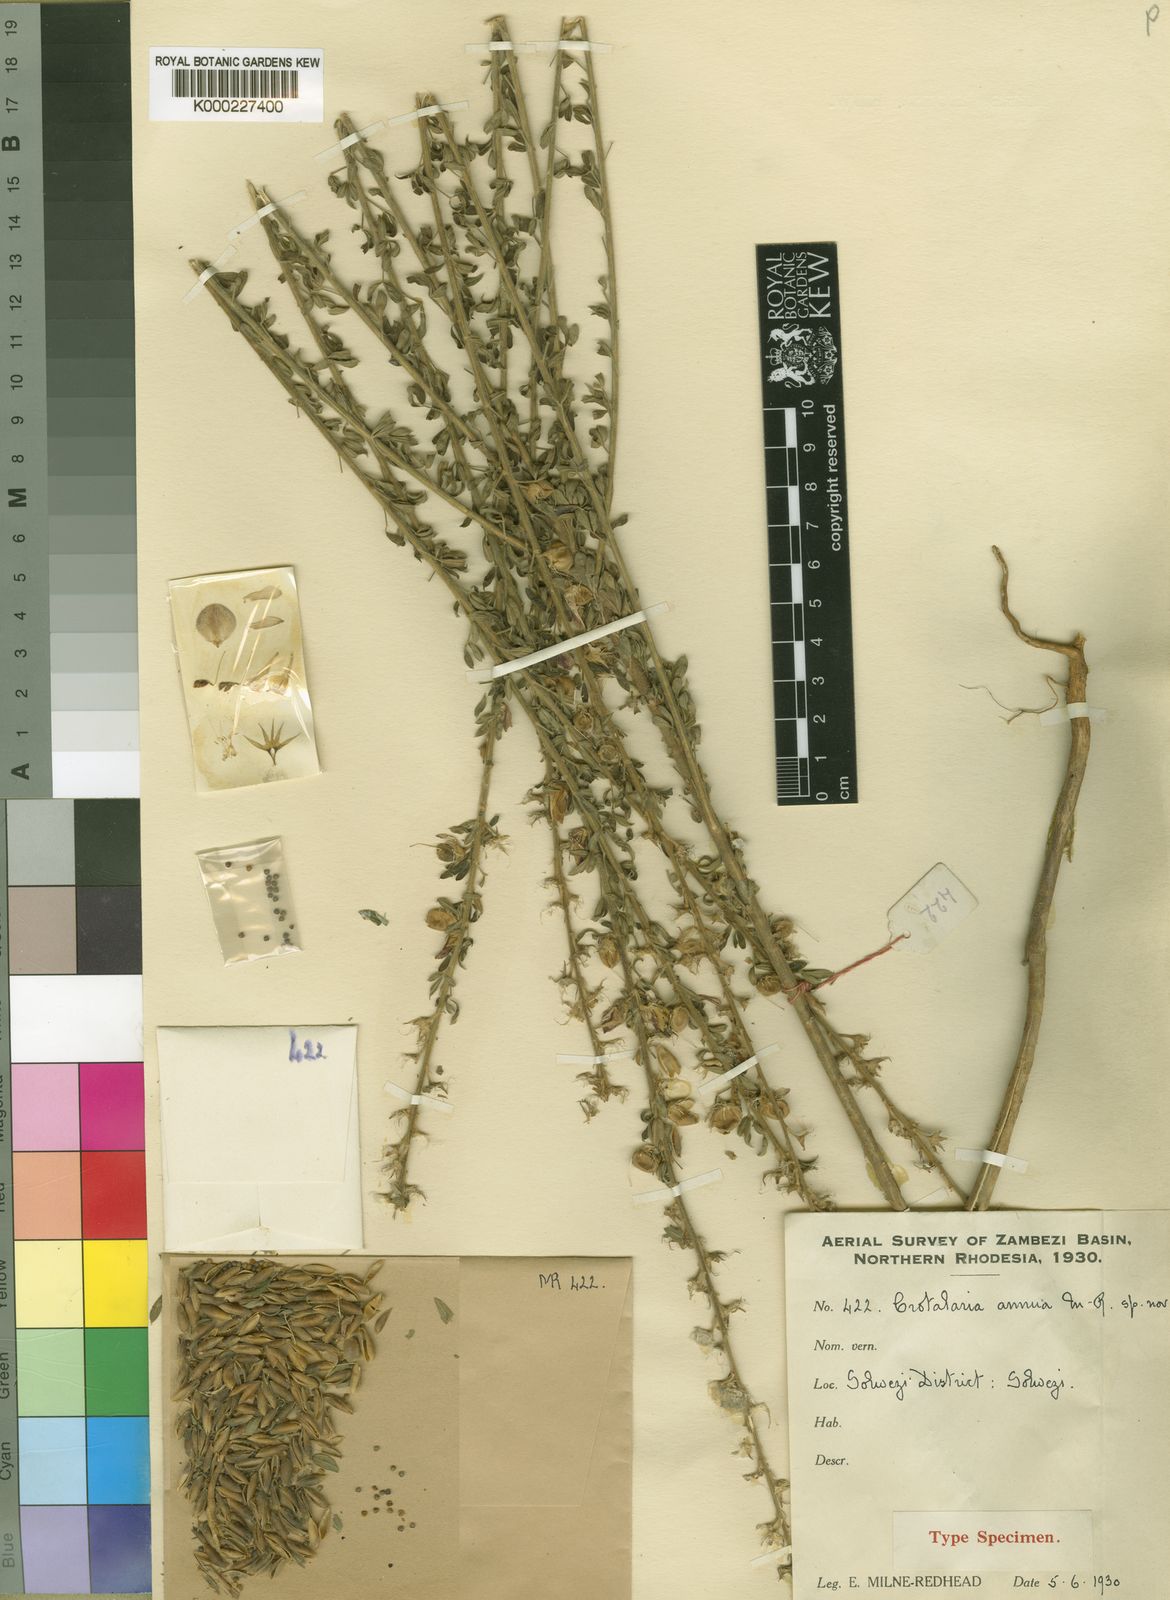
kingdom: Plantae
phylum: Tracheophyta
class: Magnoliopsida
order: Fabales
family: Fabaceae
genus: Crotalaria
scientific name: Crotalaria annua
